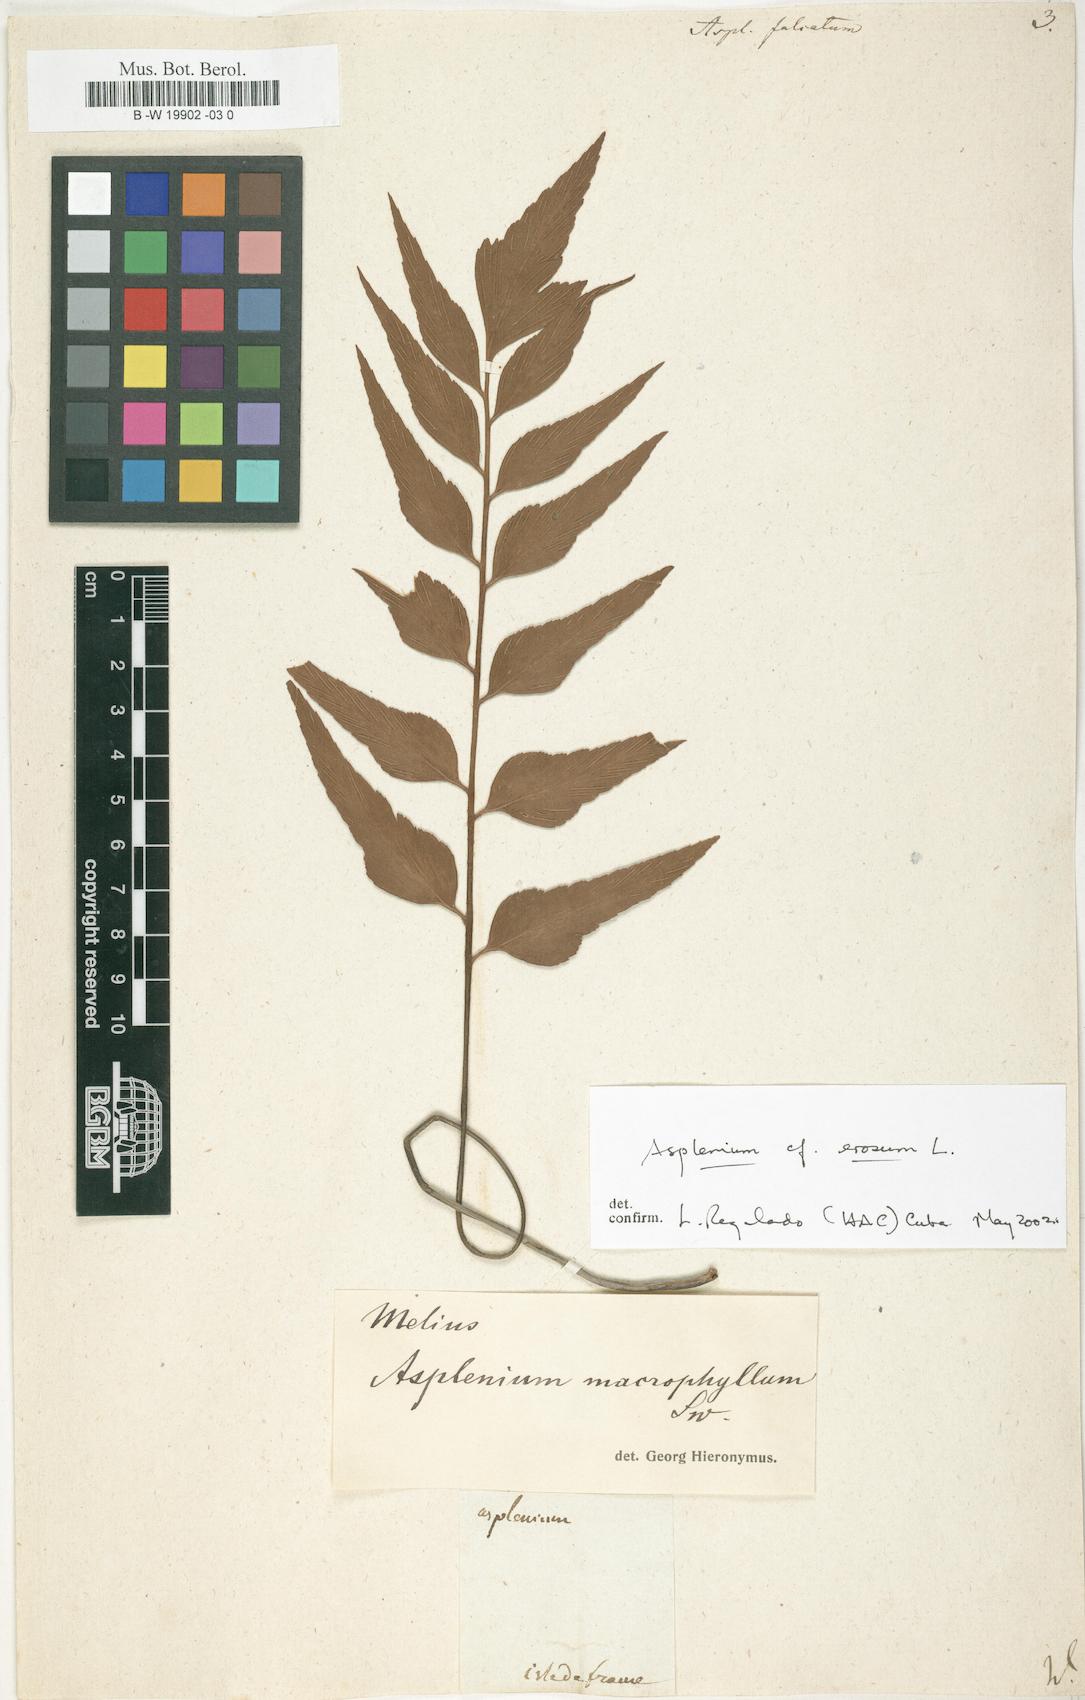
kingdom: Plantae
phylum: Tracheophyta
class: Polypodiopsida
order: Polypodiales
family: Aspleniaceae
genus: Asplenium
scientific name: Asplenium falcatum
